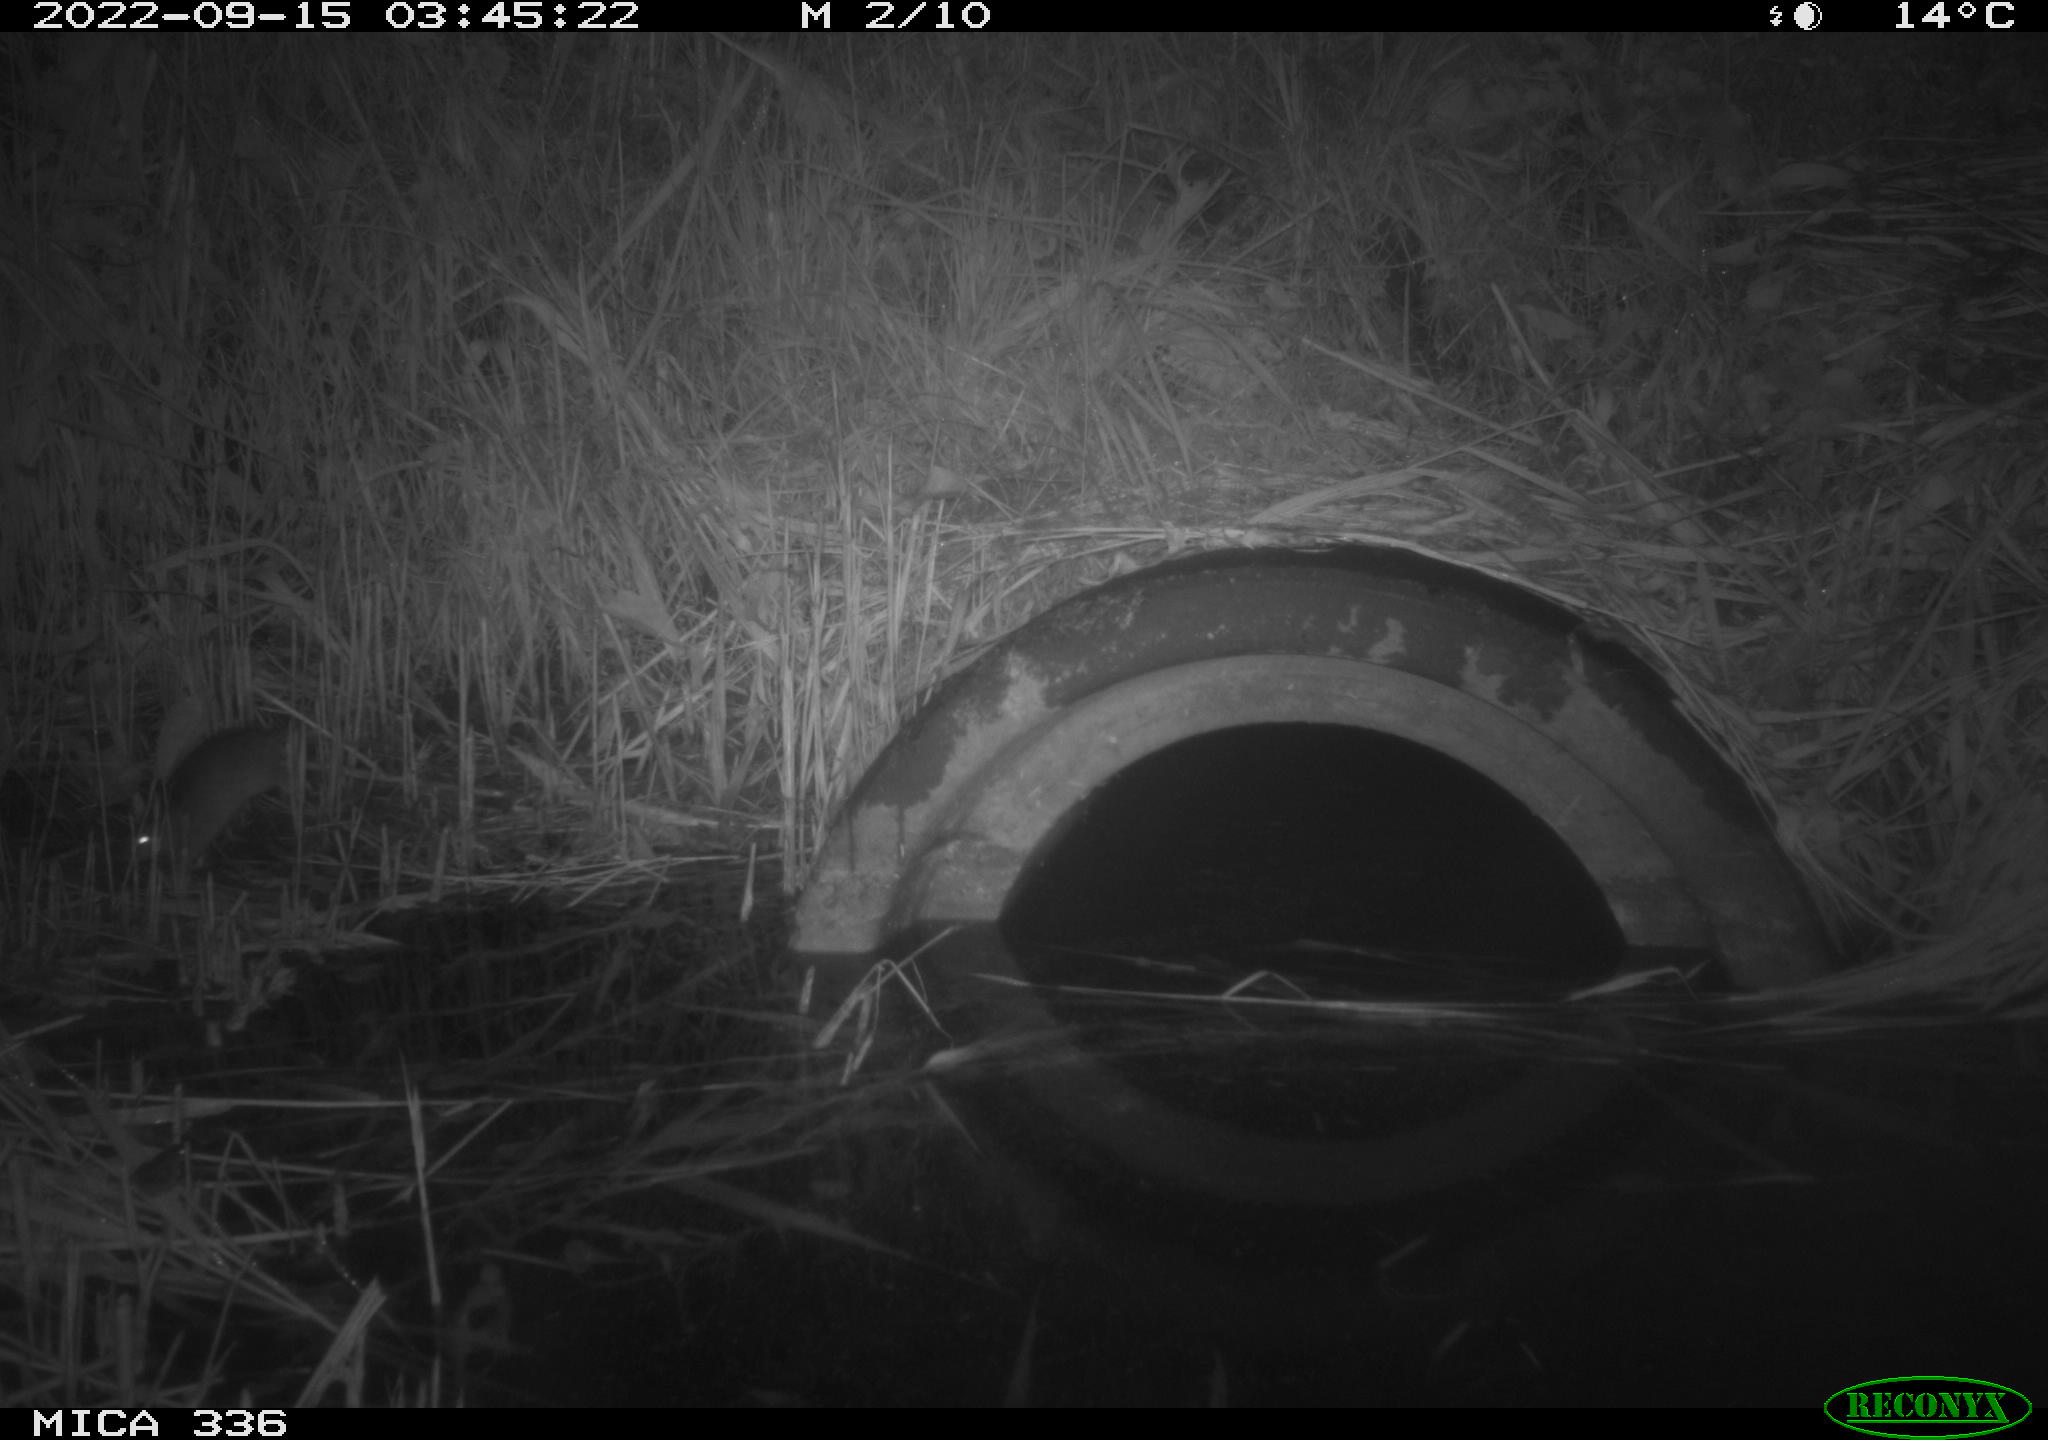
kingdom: Animalia
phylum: Chordata
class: Mammalia
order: Rodentia
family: Muridae
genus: Rattus
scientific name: Rattus norvegicus
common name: Brown rat
